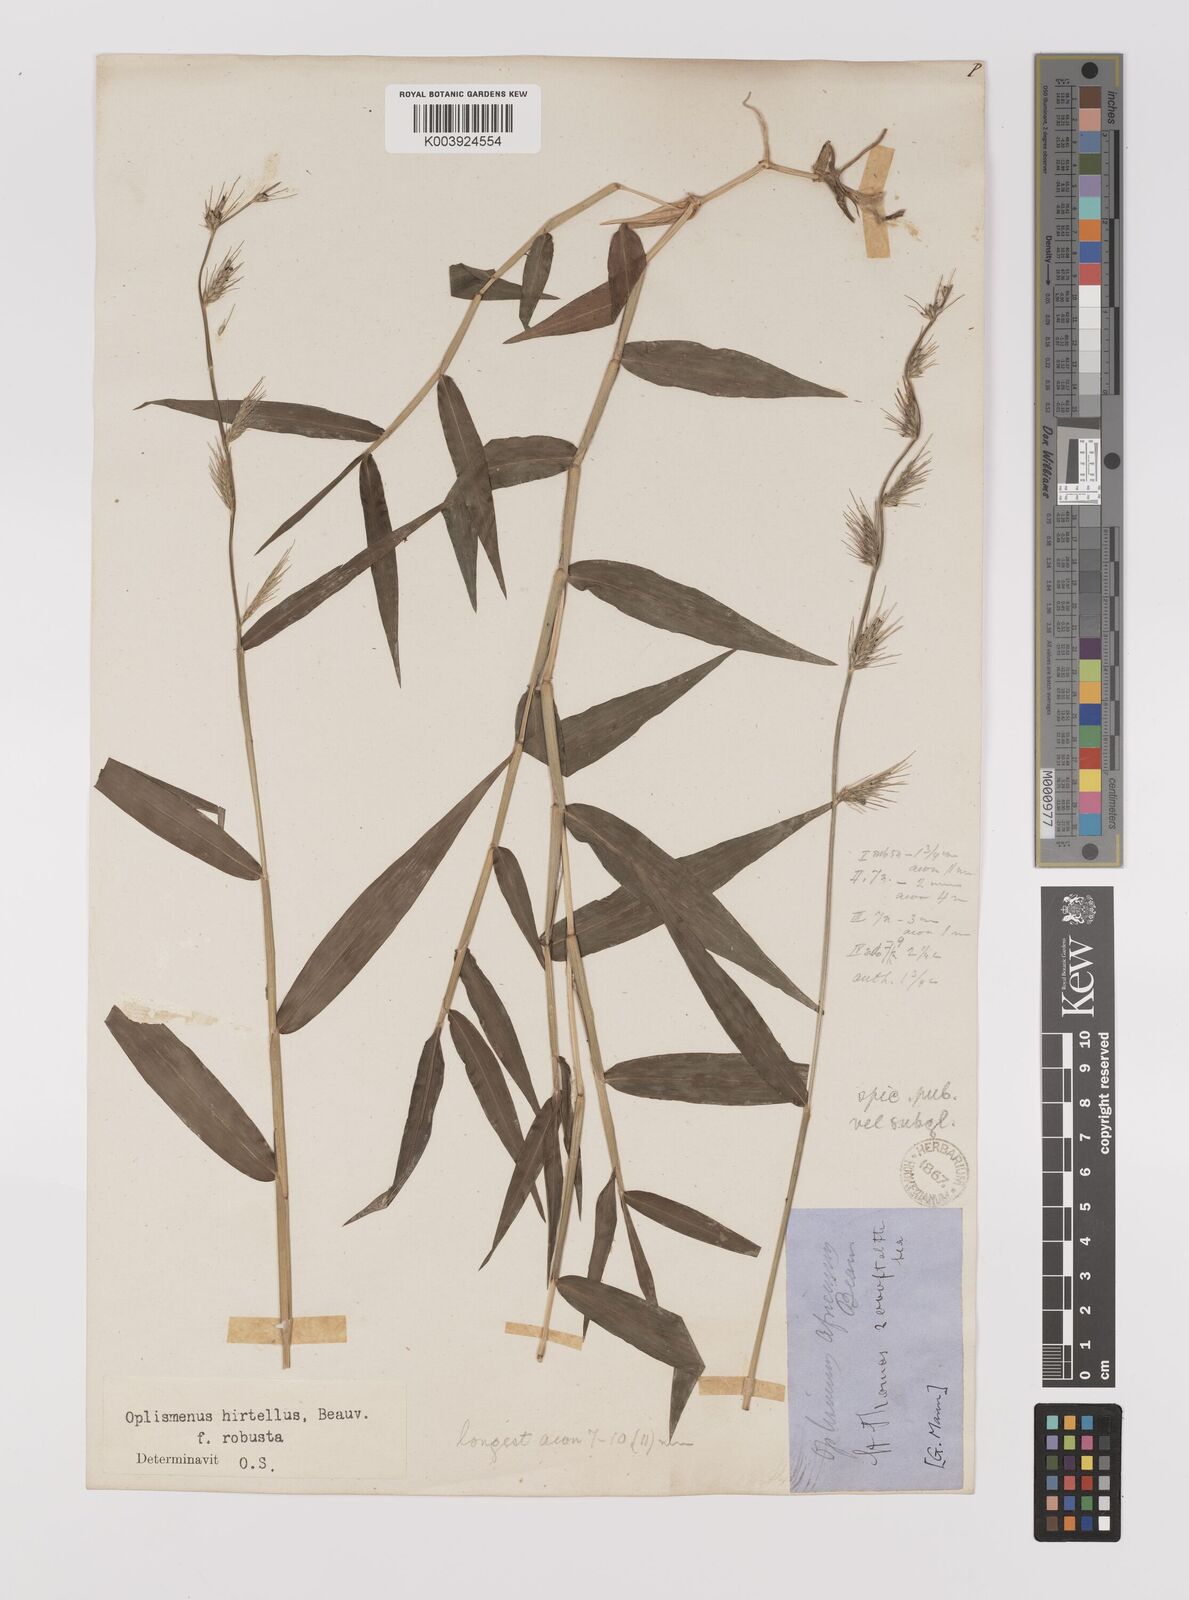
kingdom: Plantae
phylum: Tracheophyta
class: Liliopsida
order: Poales
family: Poaceae
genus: Oplismenus
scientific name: Oplismenus hirtellus
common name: Basketgrass
